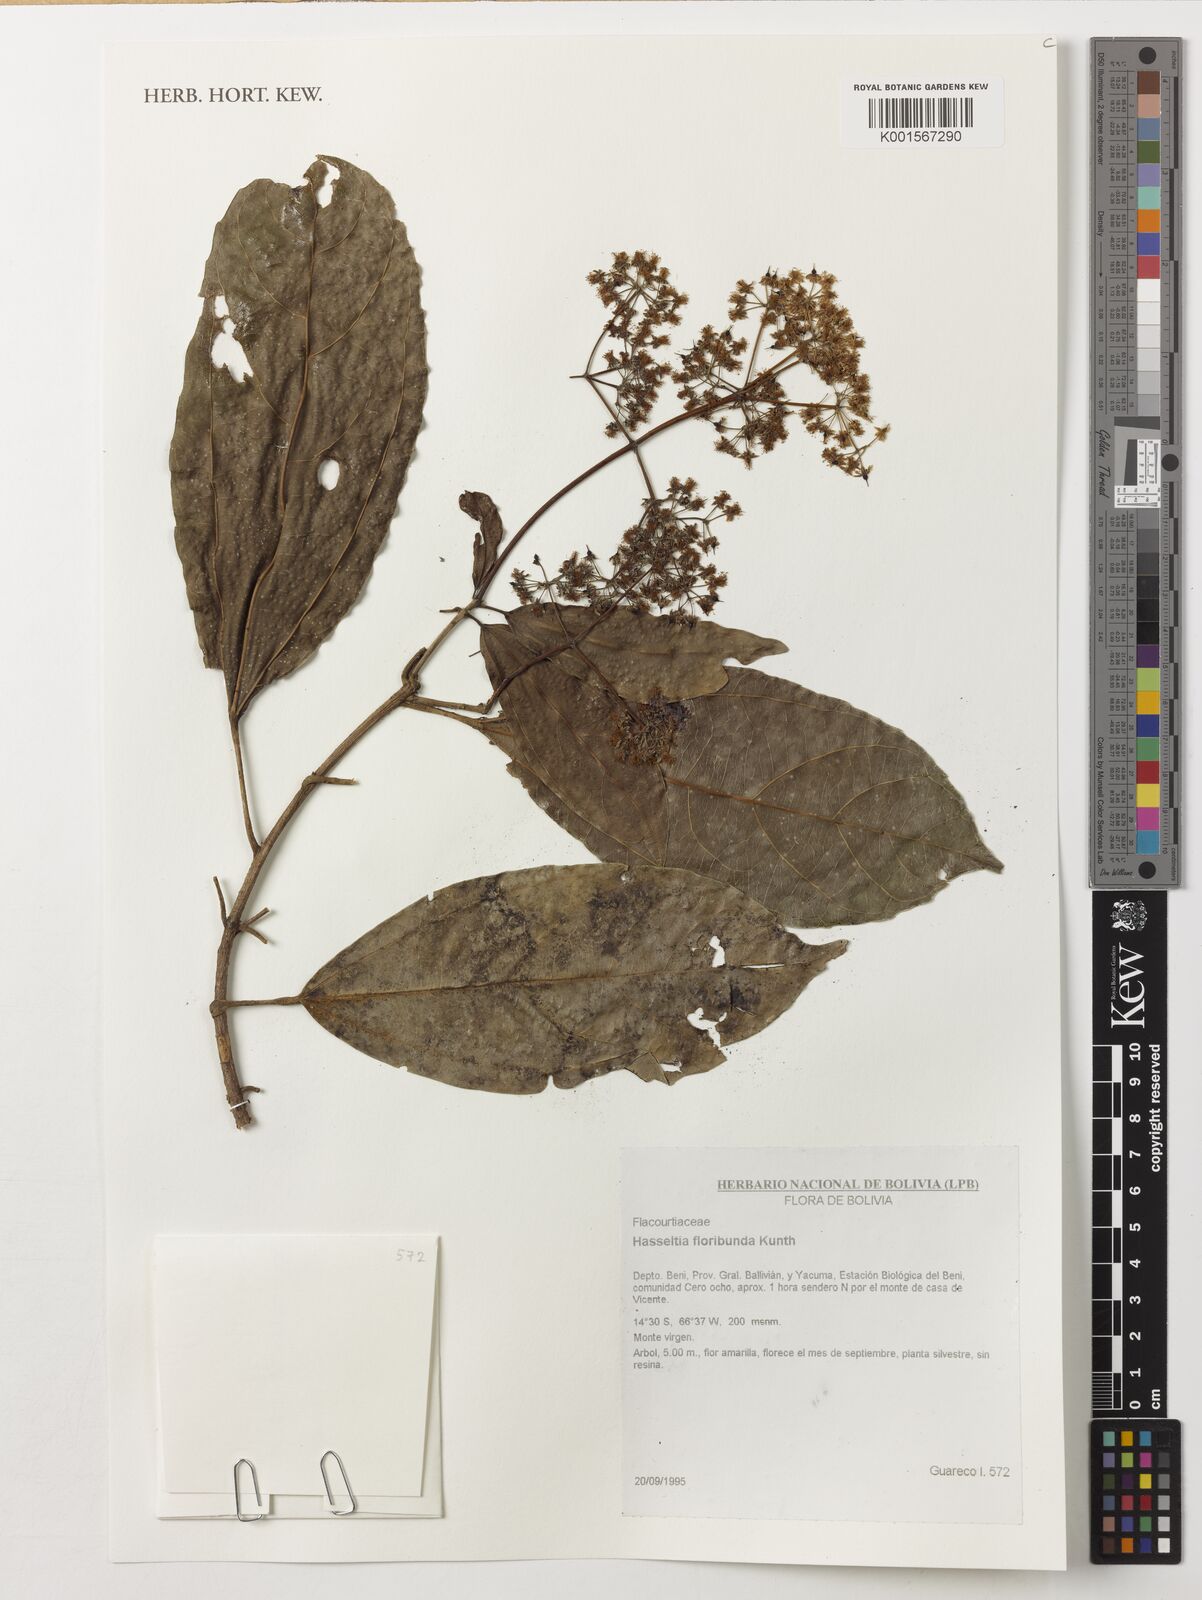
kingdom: Plantae
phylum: Tracheophyta
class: Magnoliopsida
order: Malpighiales
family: Salicaceae
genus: Hasseltia
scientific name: Hasseltia floribunda
